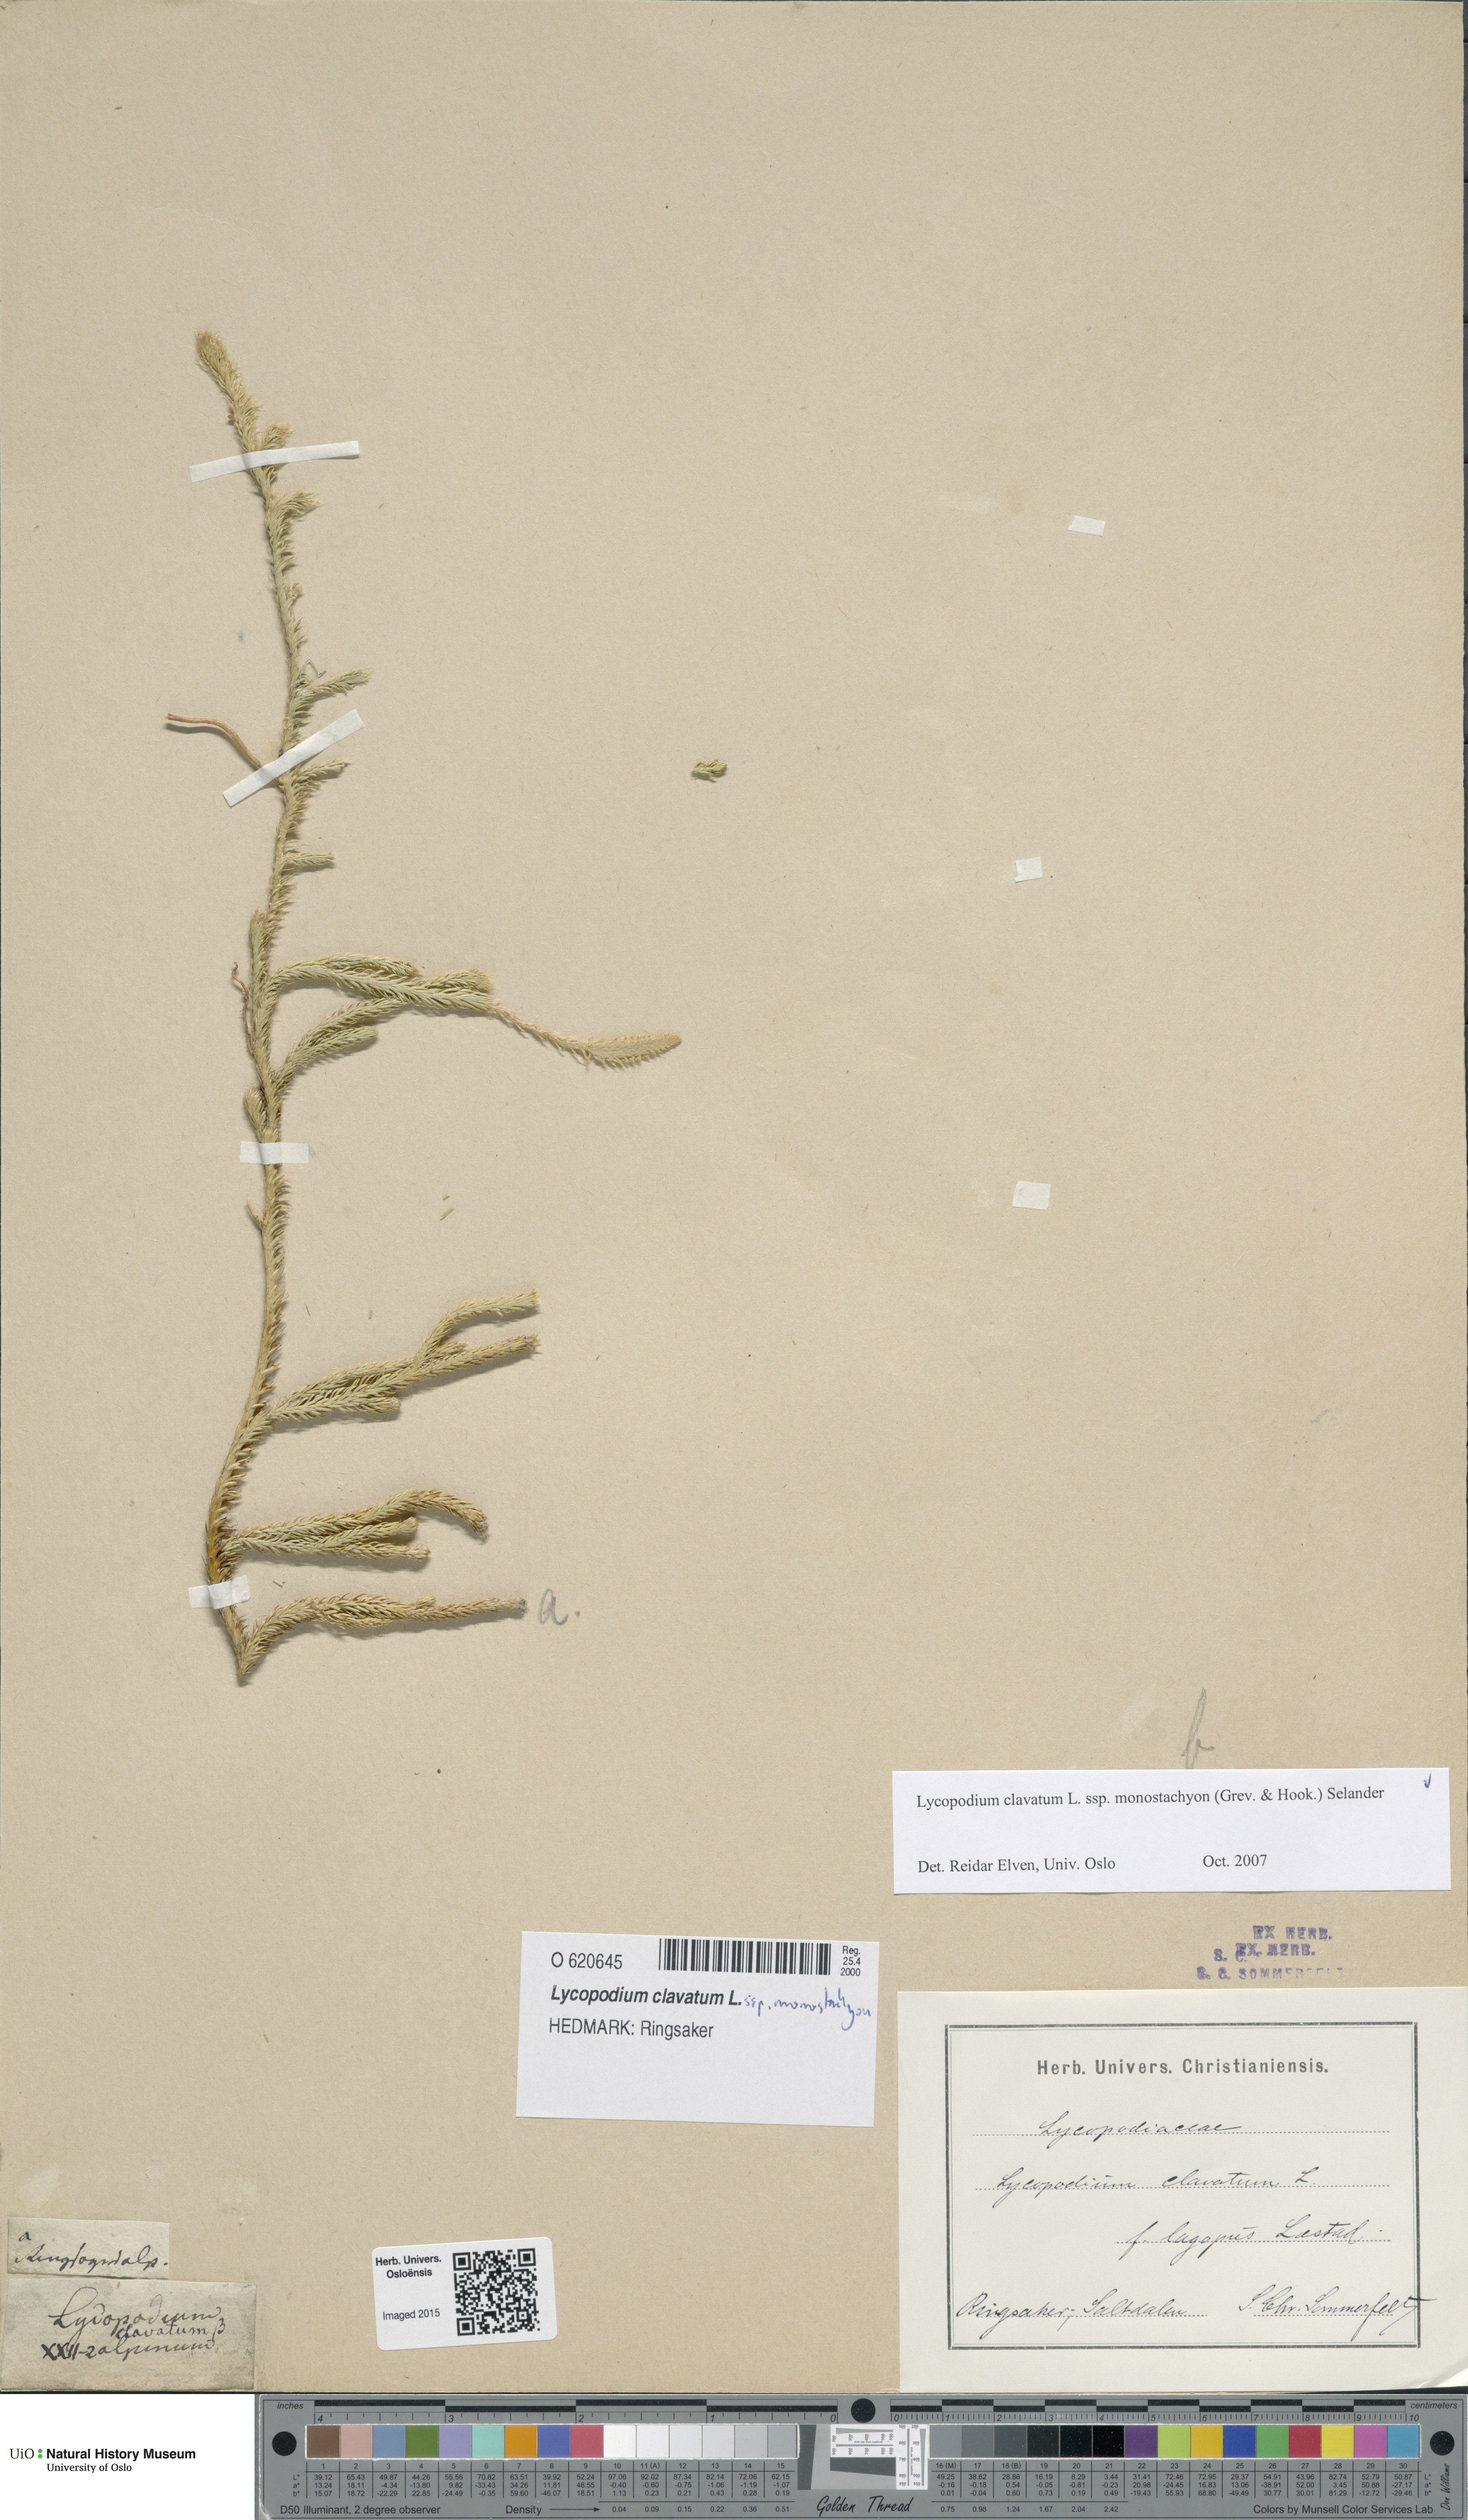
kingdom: Plantae
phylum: Tracheophyta
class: Lycopodiopsida
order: Lycopodiales
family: Lycopodiaceae
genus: Lycopodium
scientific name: Lycopodium lagopus
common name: One-cone clubmoss
